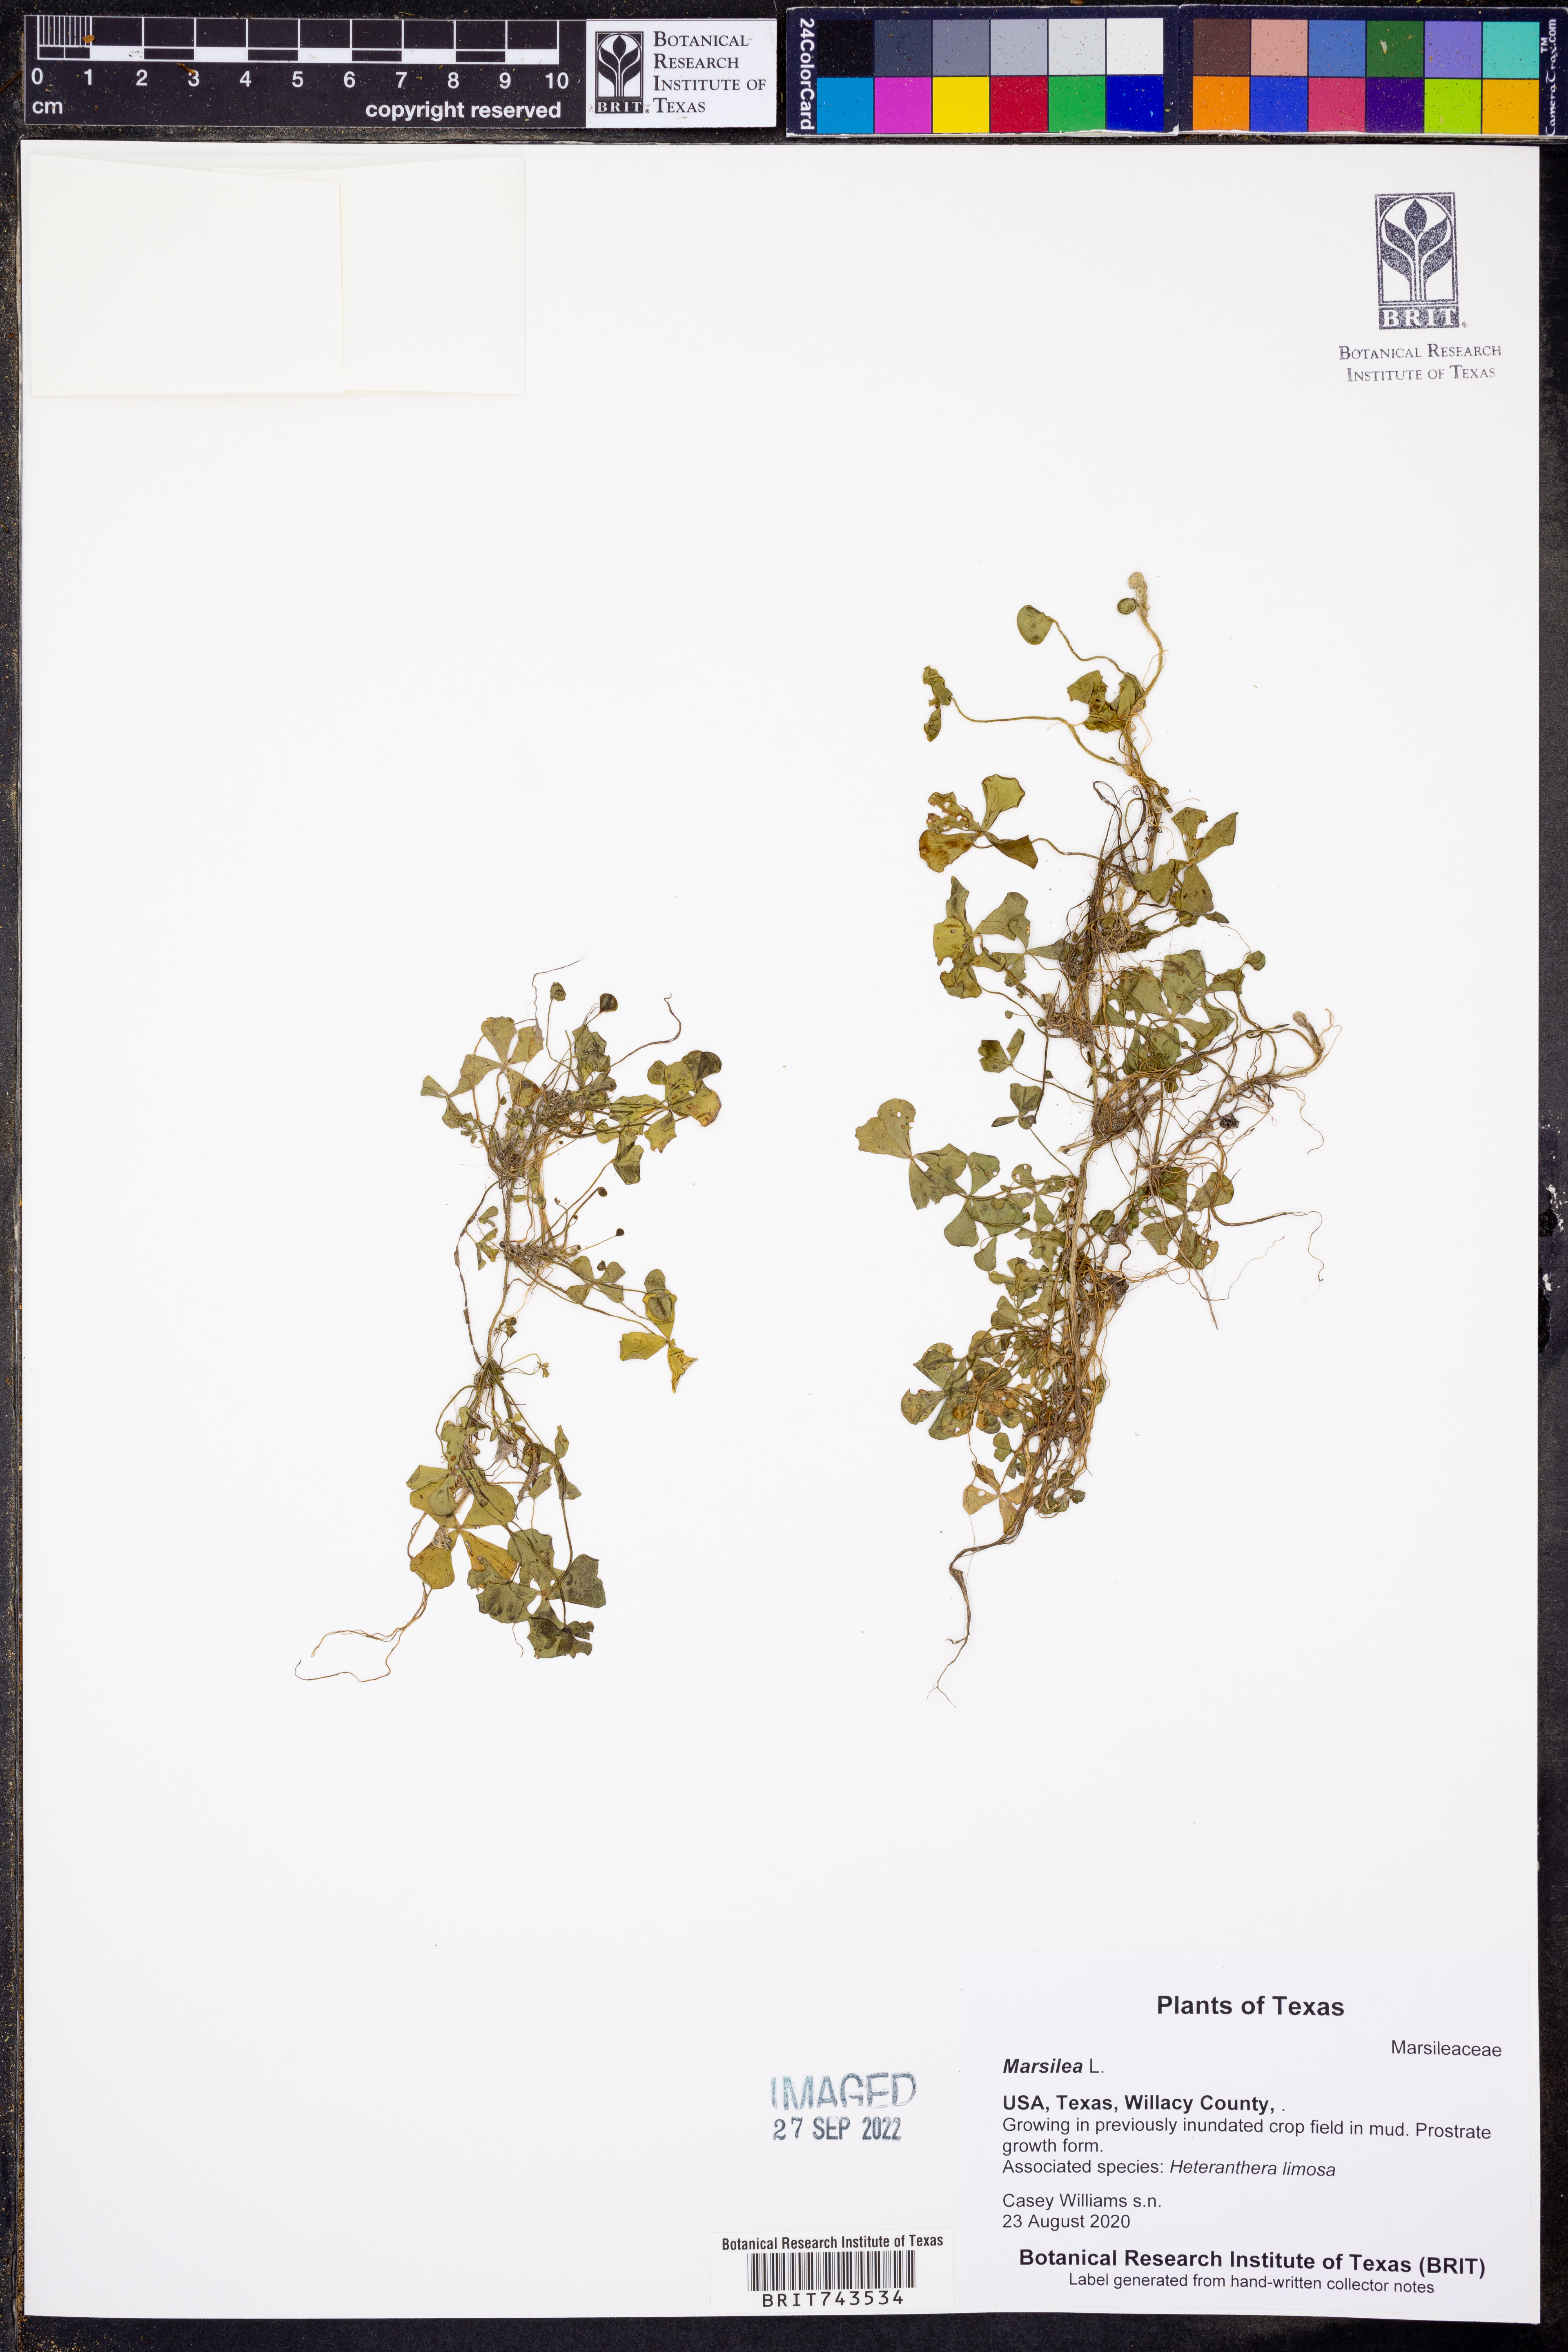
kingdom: Plantae
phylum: Tracheophyta
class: Polypodiopsida
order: Salviniales
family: Marsileaceae
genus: Marsilea
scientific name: Marsilea
